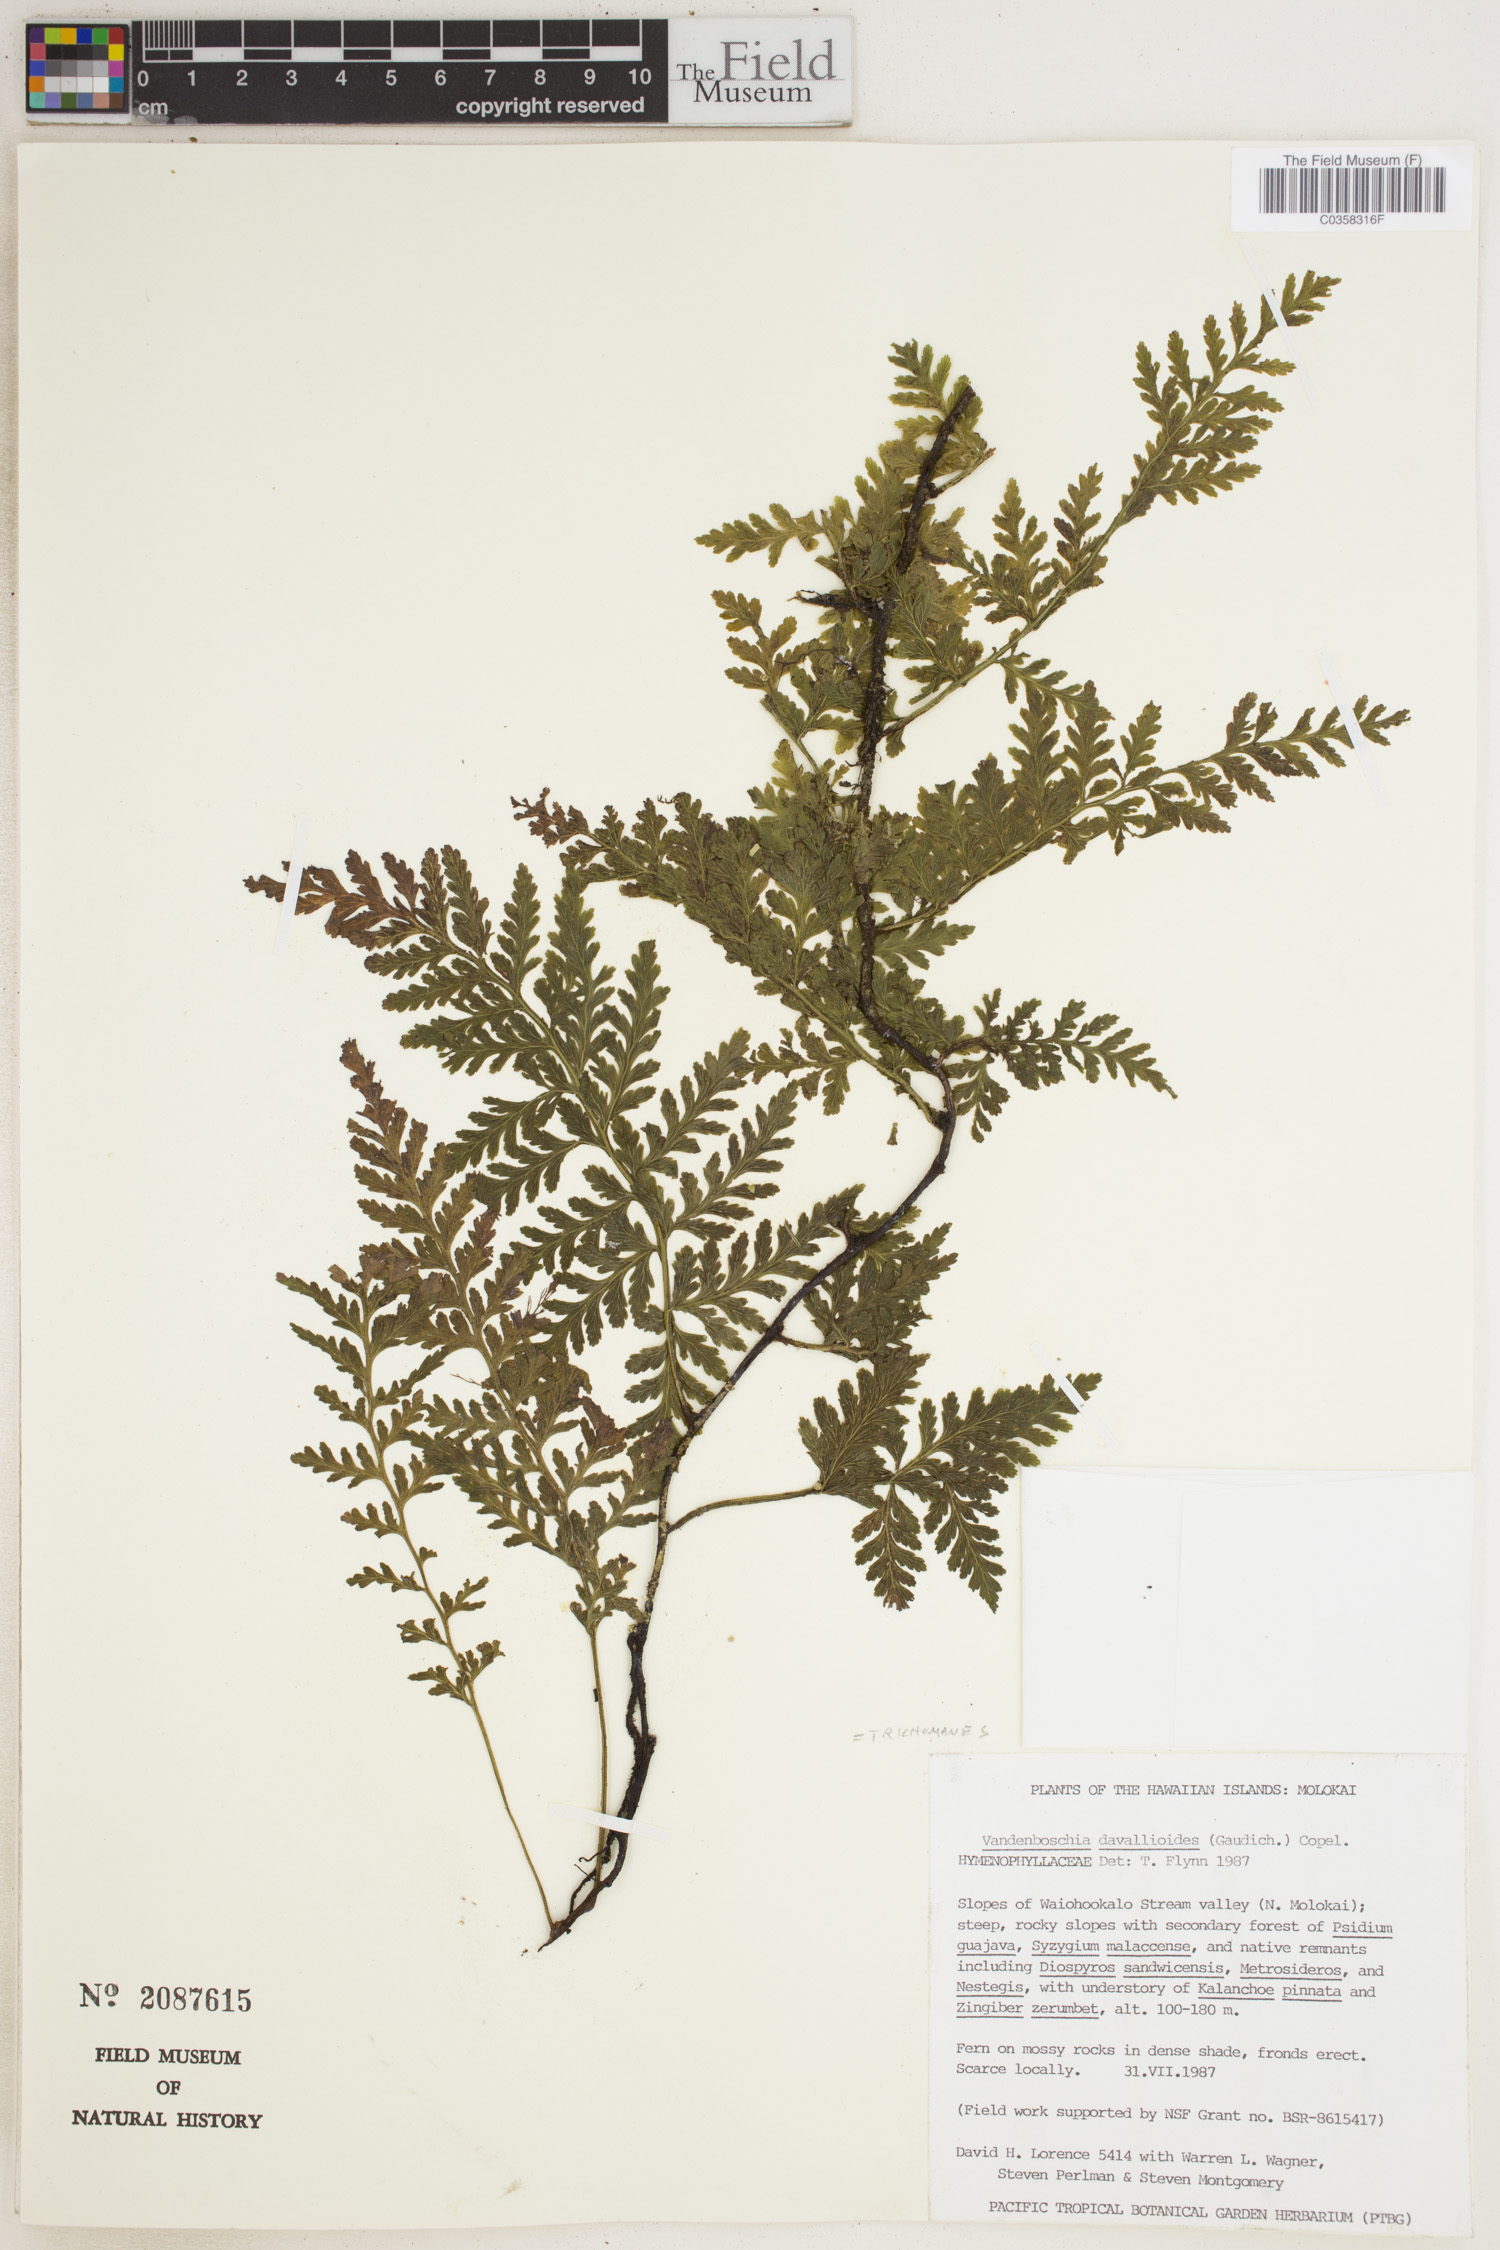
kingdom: Plantae
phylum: Tracheophyta
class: Polypodiopsida
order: Hymenophyllales
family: Hymenophyllaceae
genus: Trichomanes
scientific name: Trichomanes
